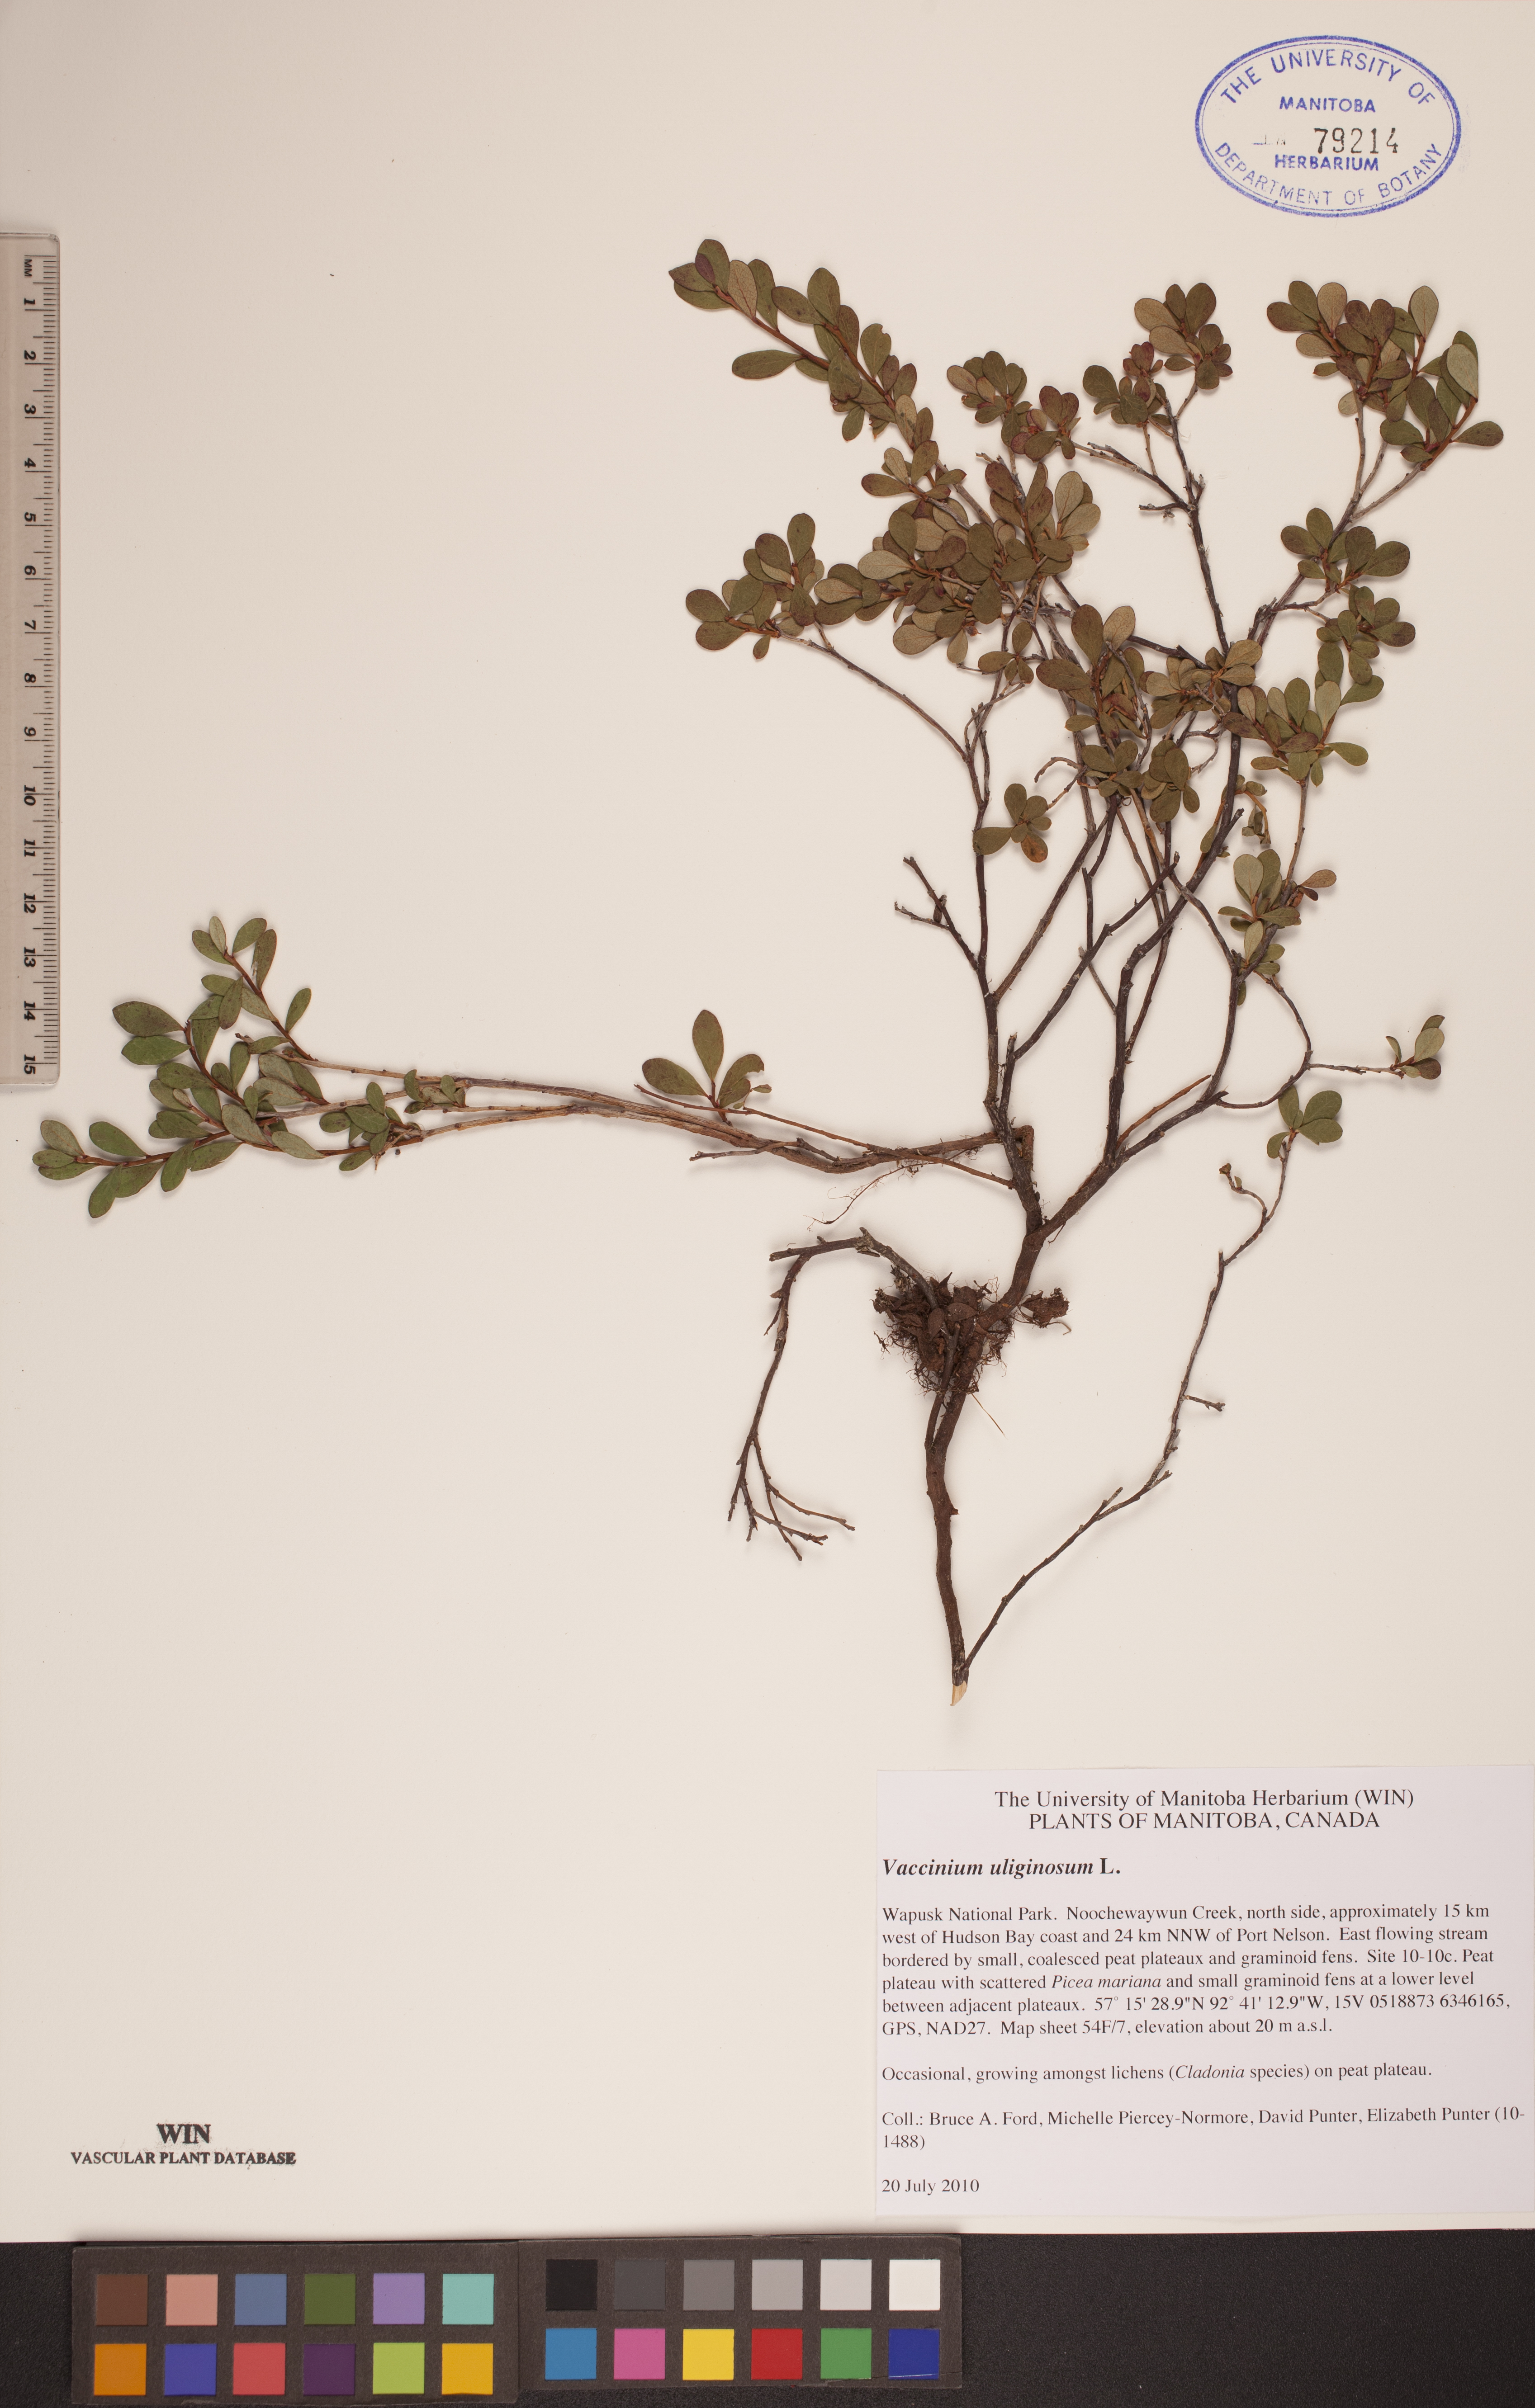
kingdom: Plantae
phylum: Tracheophyta
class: Magnoliopsida
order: Ericales
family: Ericaceae
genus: Vaccinium
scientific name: Vaccinium uliginosum
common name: Bog bilberry
